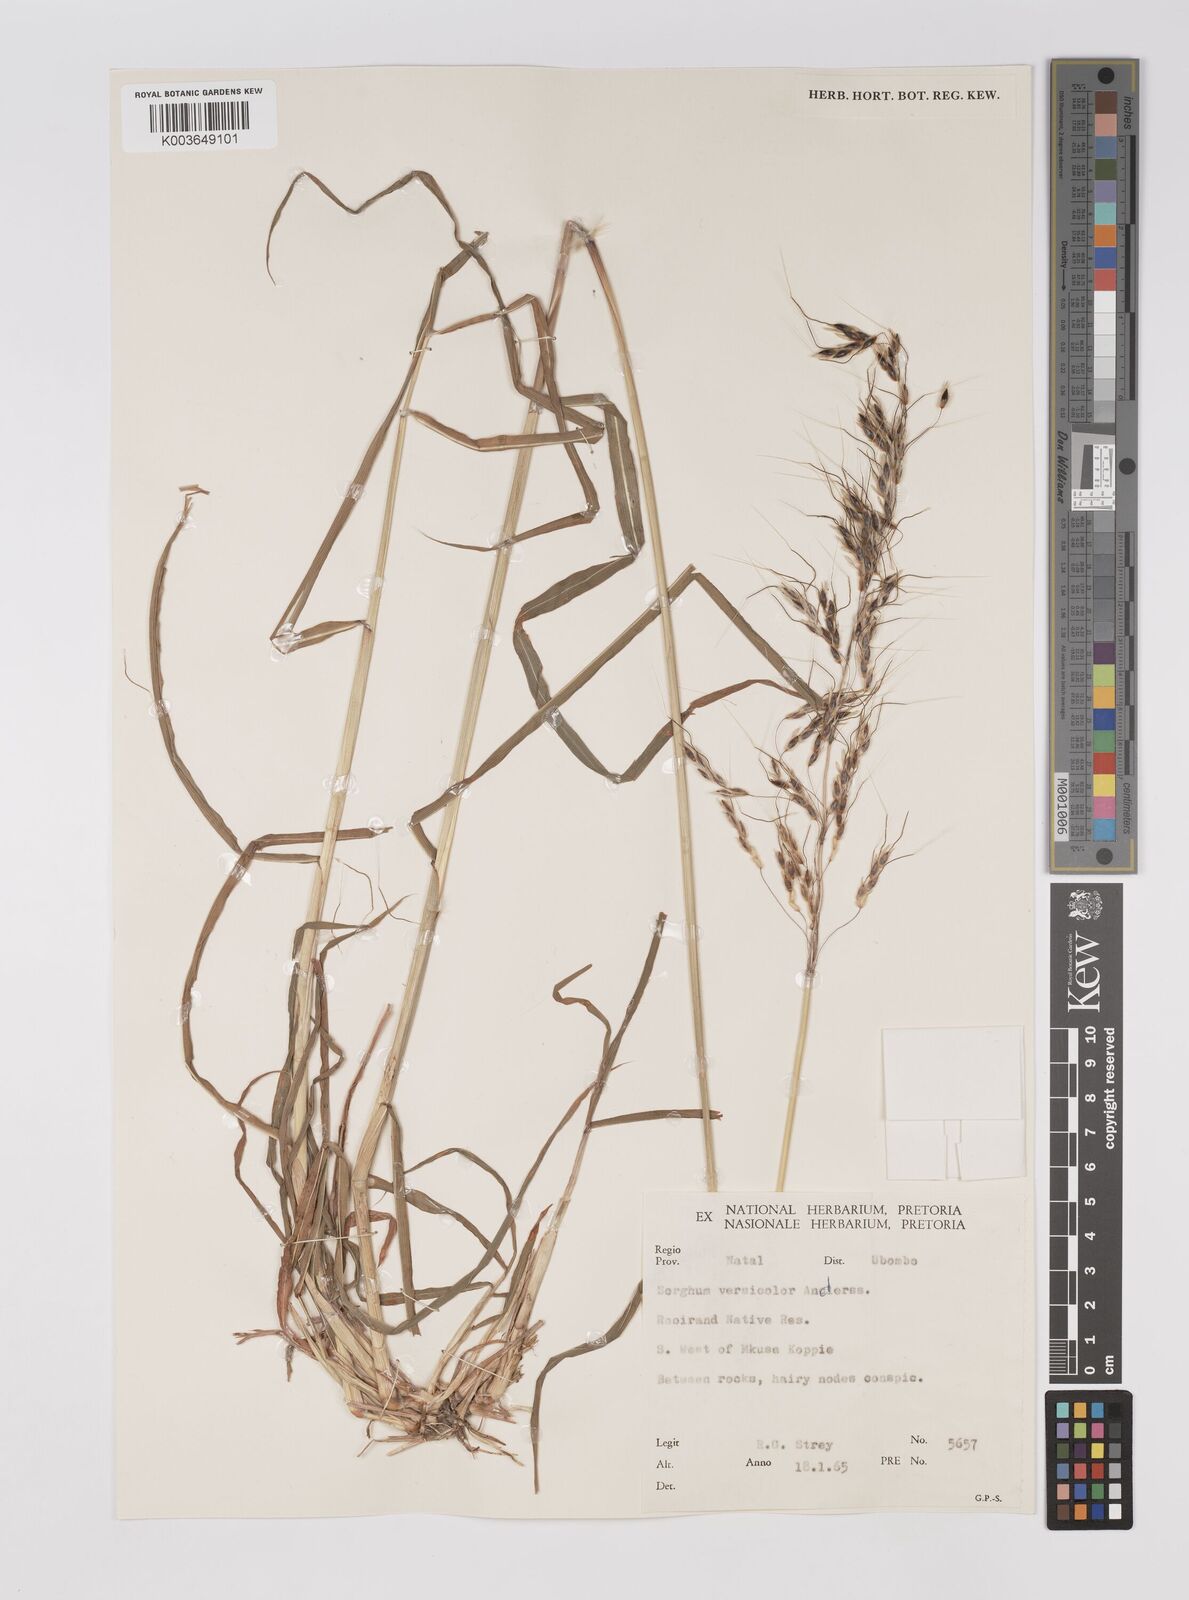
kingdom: Plantae
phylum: Tracheophyta
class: Liliopsida
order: Poales
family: Poaceae
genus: Sarga
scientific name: Sarga versicolor
